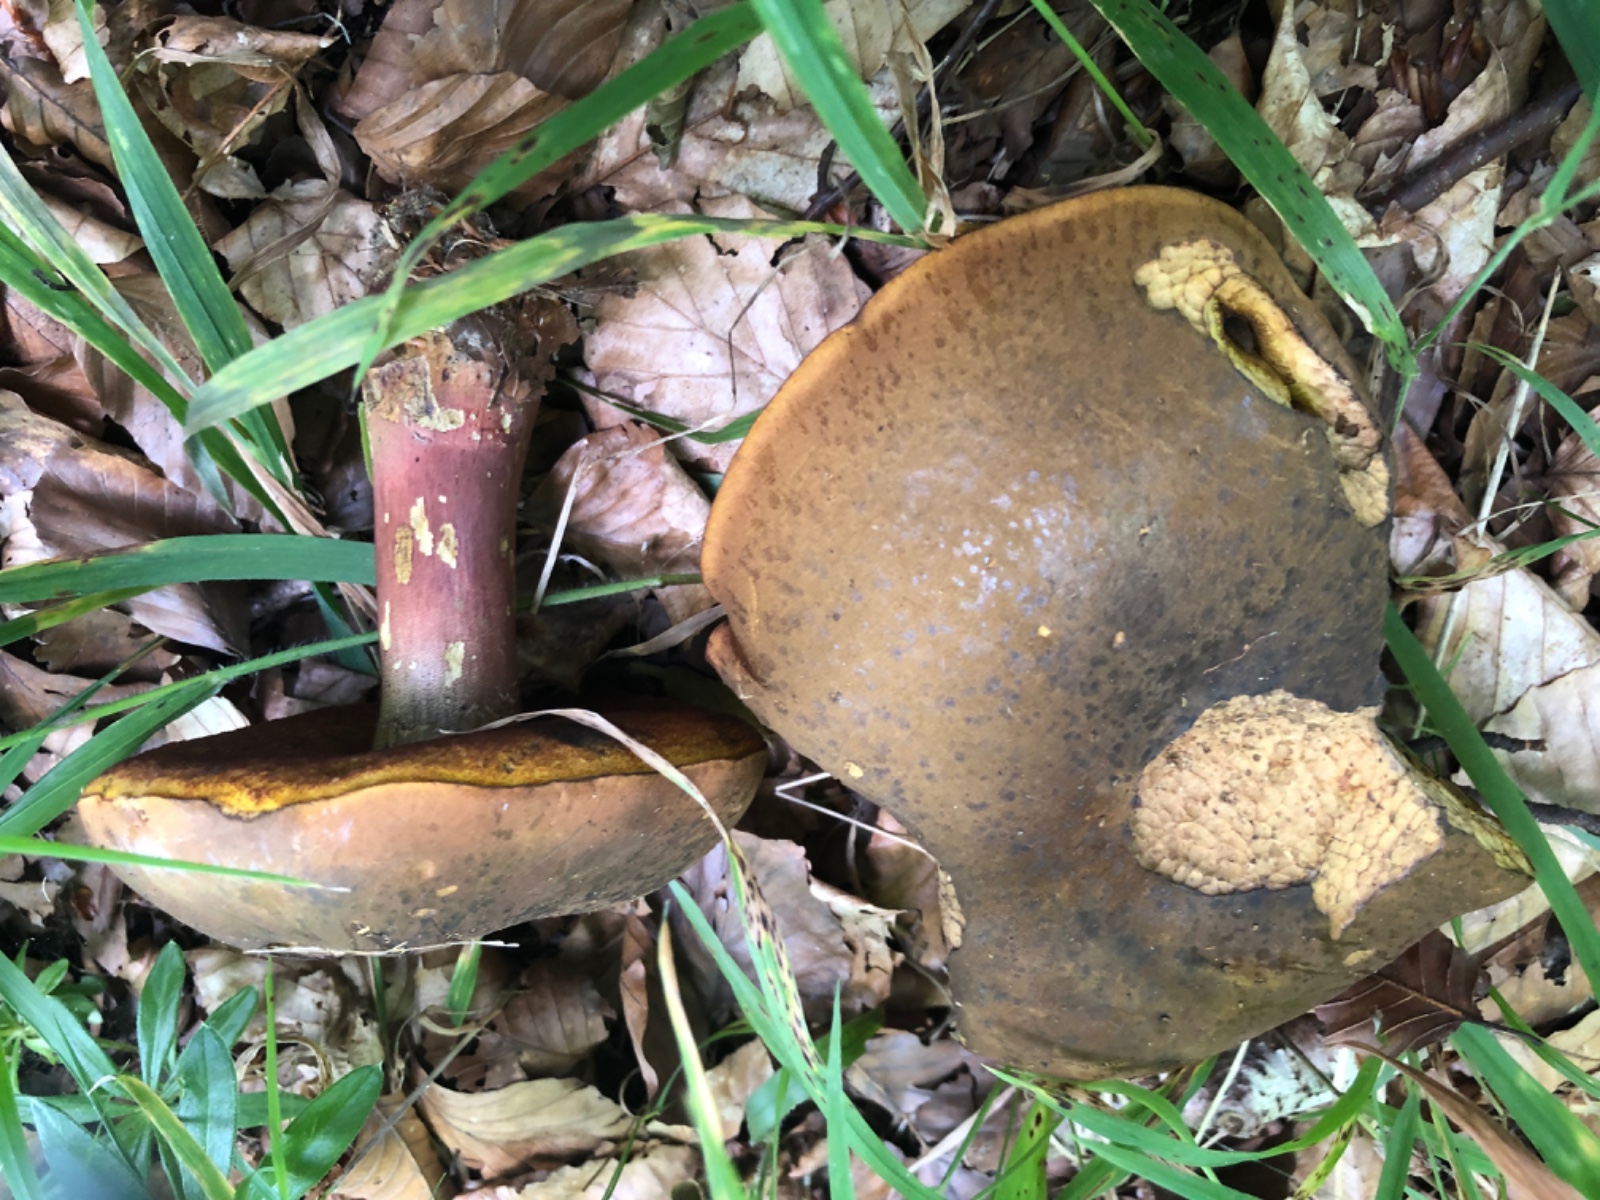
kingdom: Fungi
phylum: Basidiomycota
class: Agaricomycetes
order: Boletales
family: Boletaceae
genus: Neoboletus
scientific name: Neoboletus erythropus
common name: punktstokket indigorørhat
